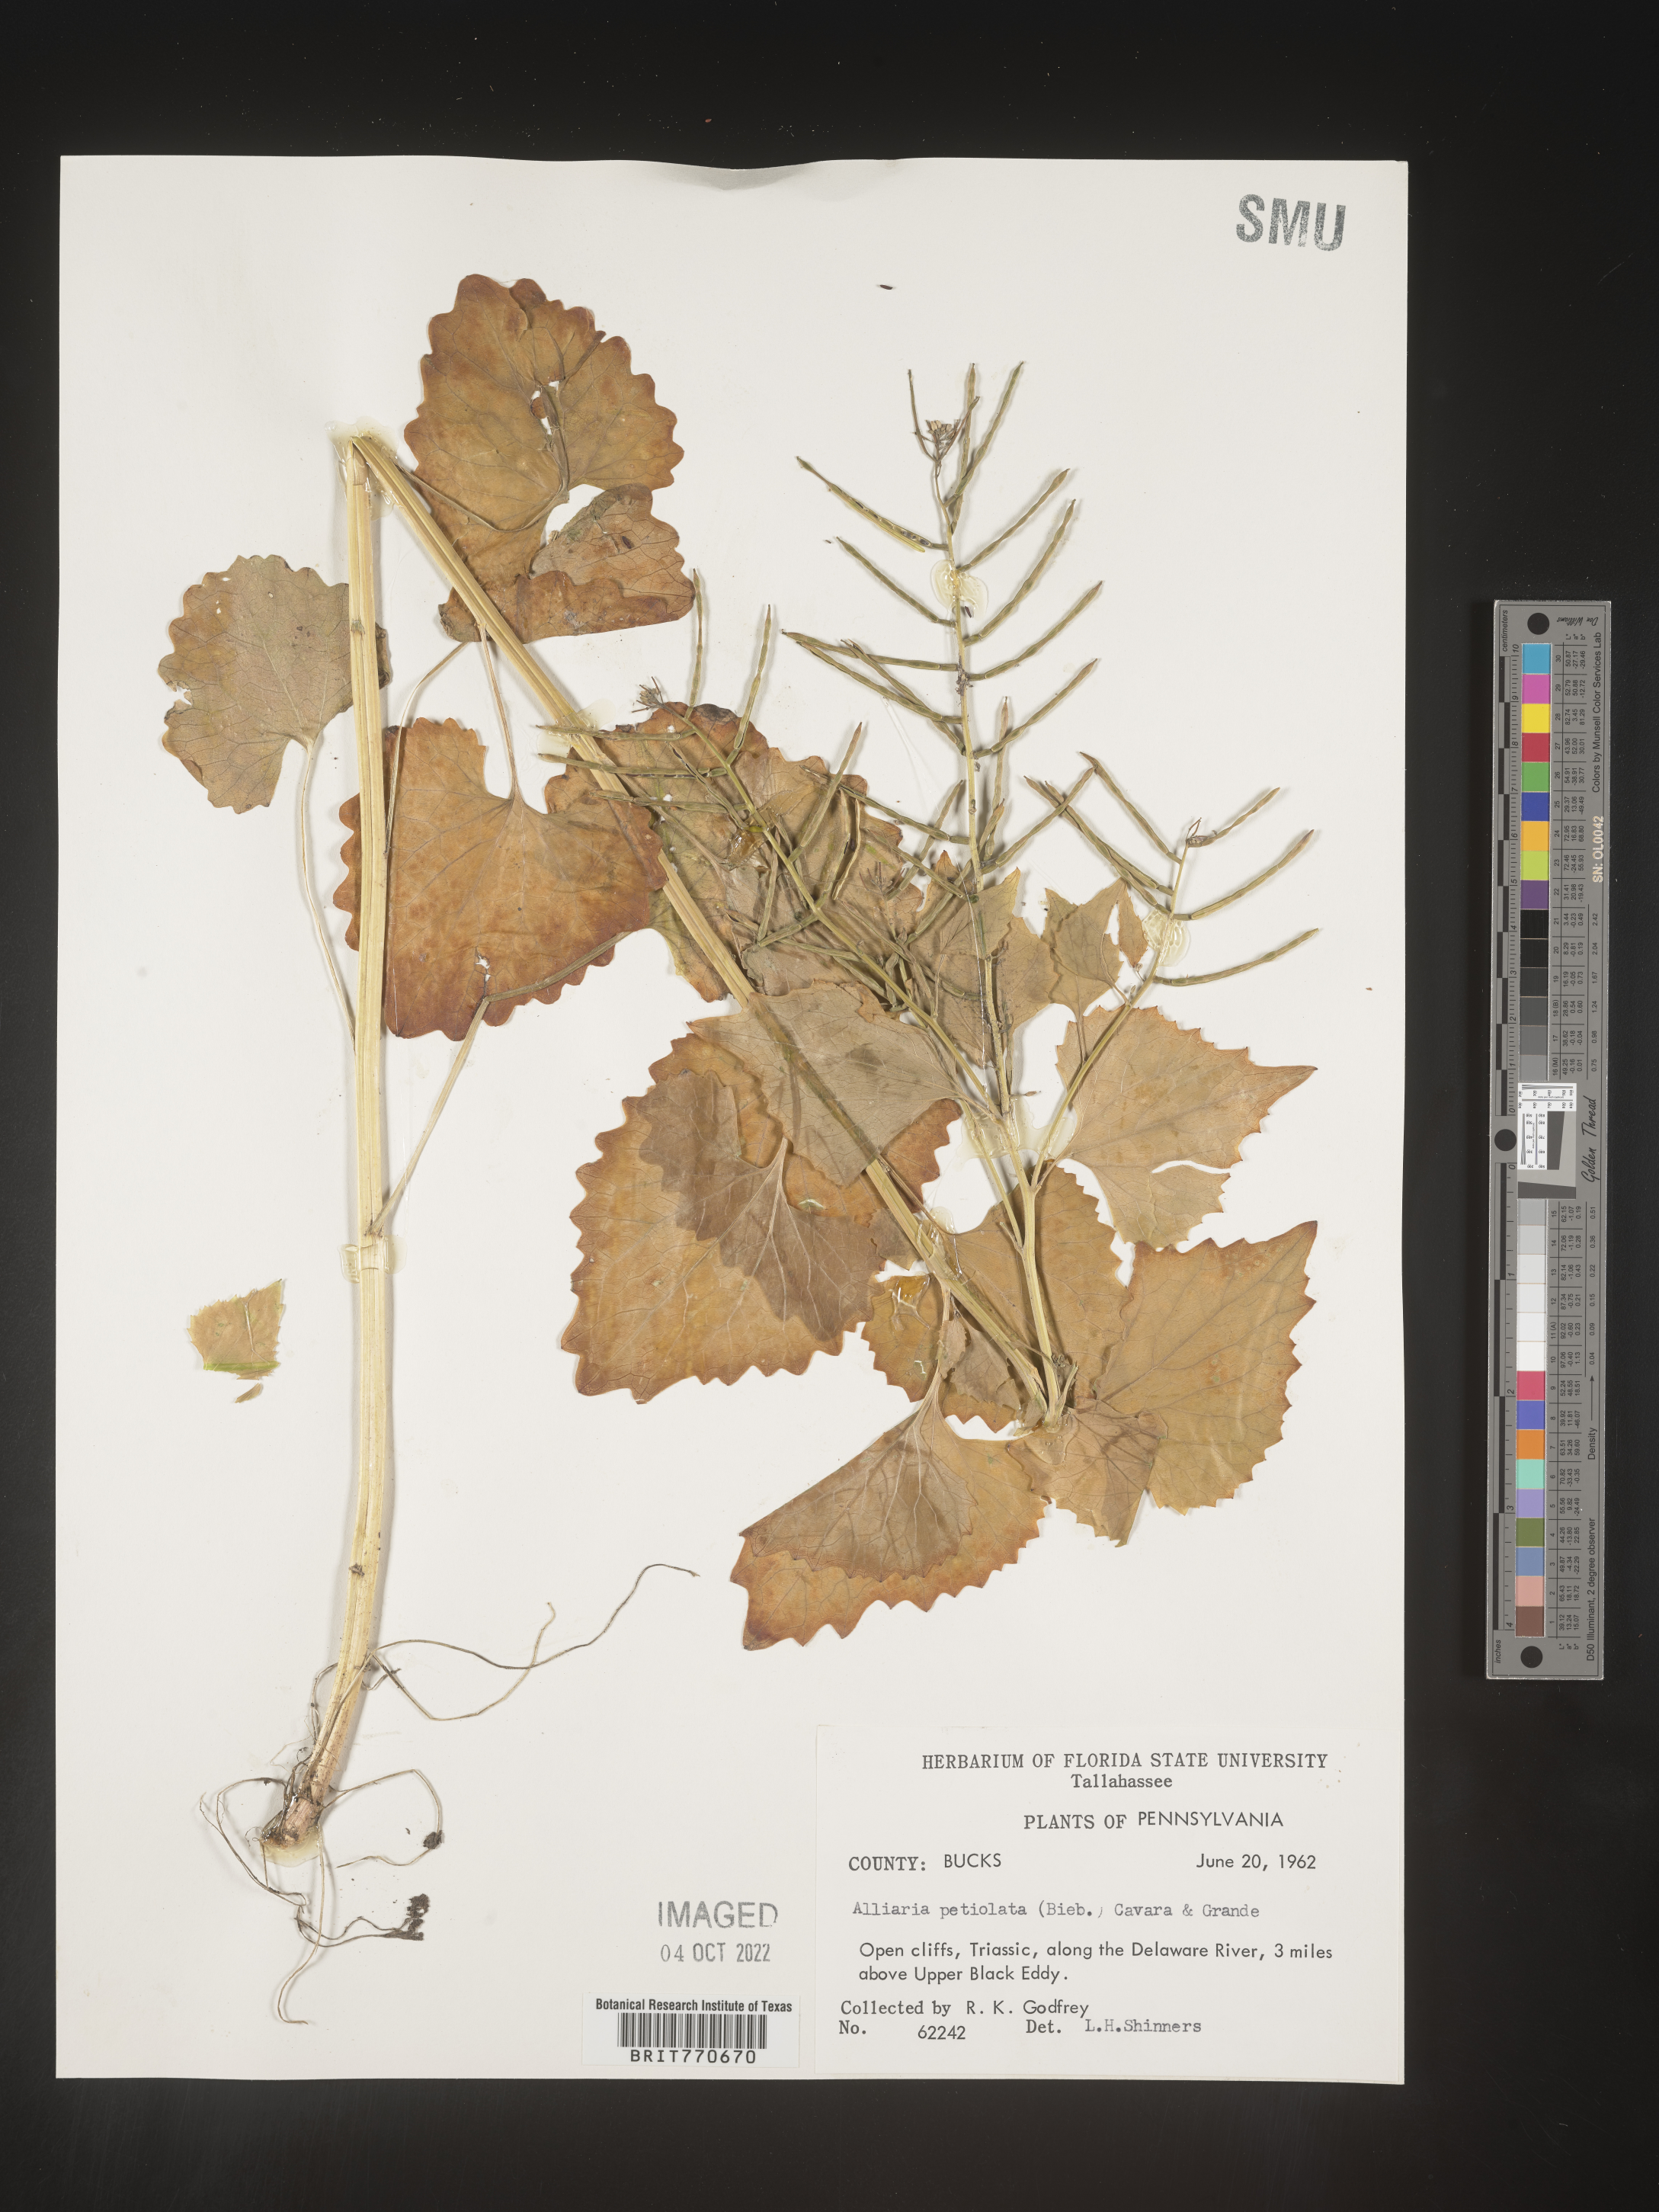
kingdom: Plantae
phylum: Tracheophyta
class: Magnoliopsida
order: Brassicales
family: Brassicaceae
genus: Alliaria
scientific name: Alliaria
